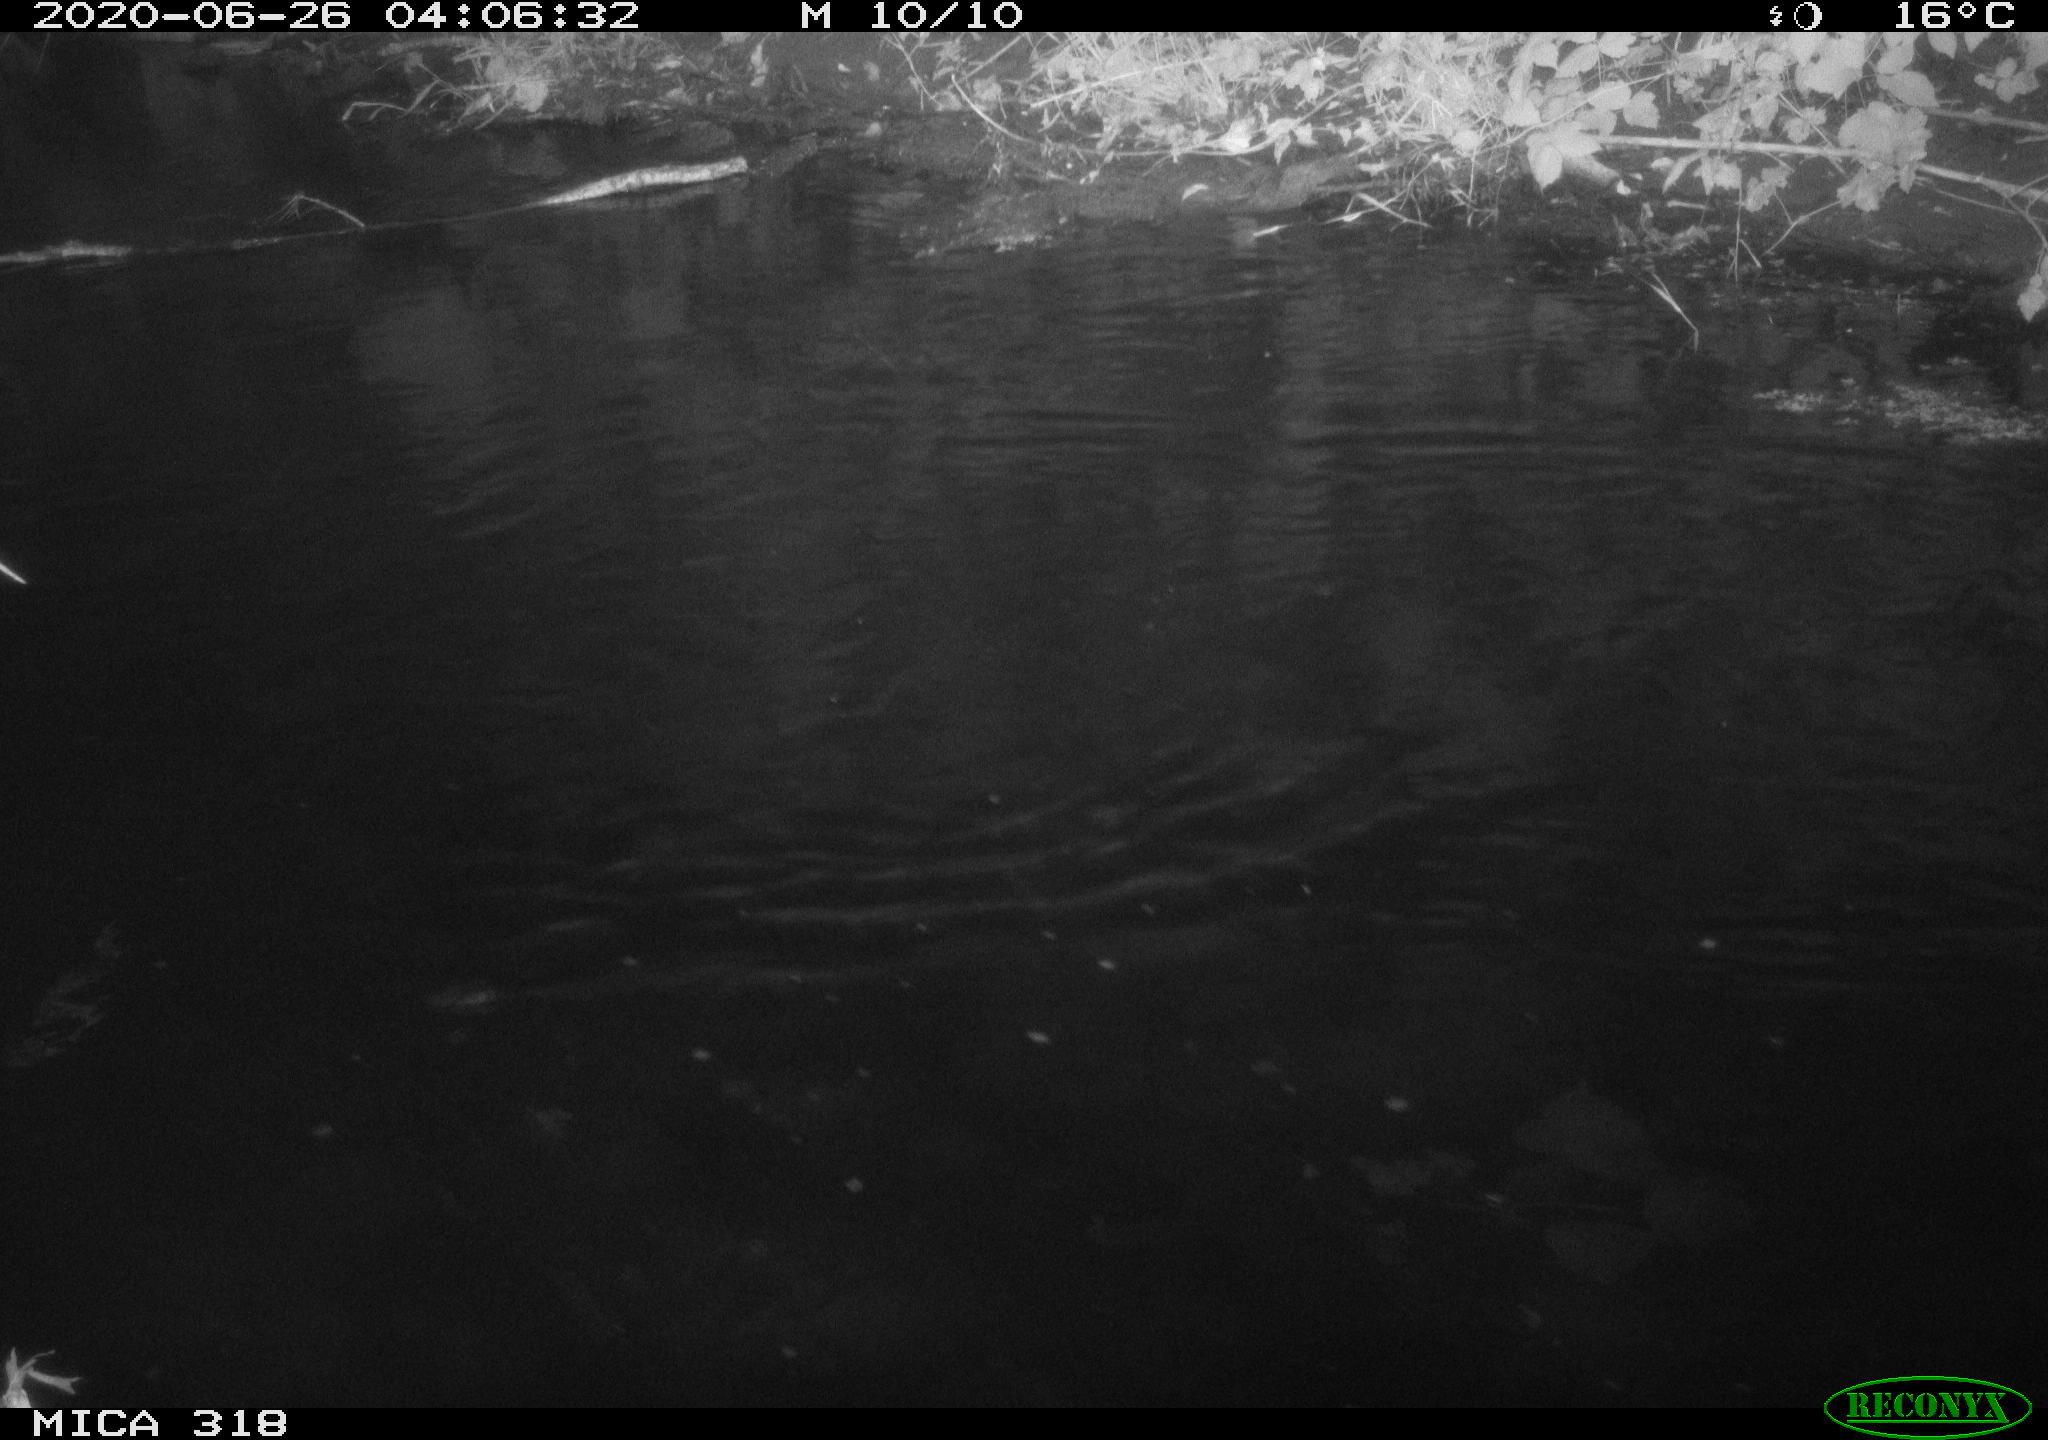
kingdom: Animalia
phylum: Chordata
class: Aves
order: Pelecaniformes
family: Ardeidae
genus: Ardea
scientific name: Ardea cinerea
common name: Grey heron
